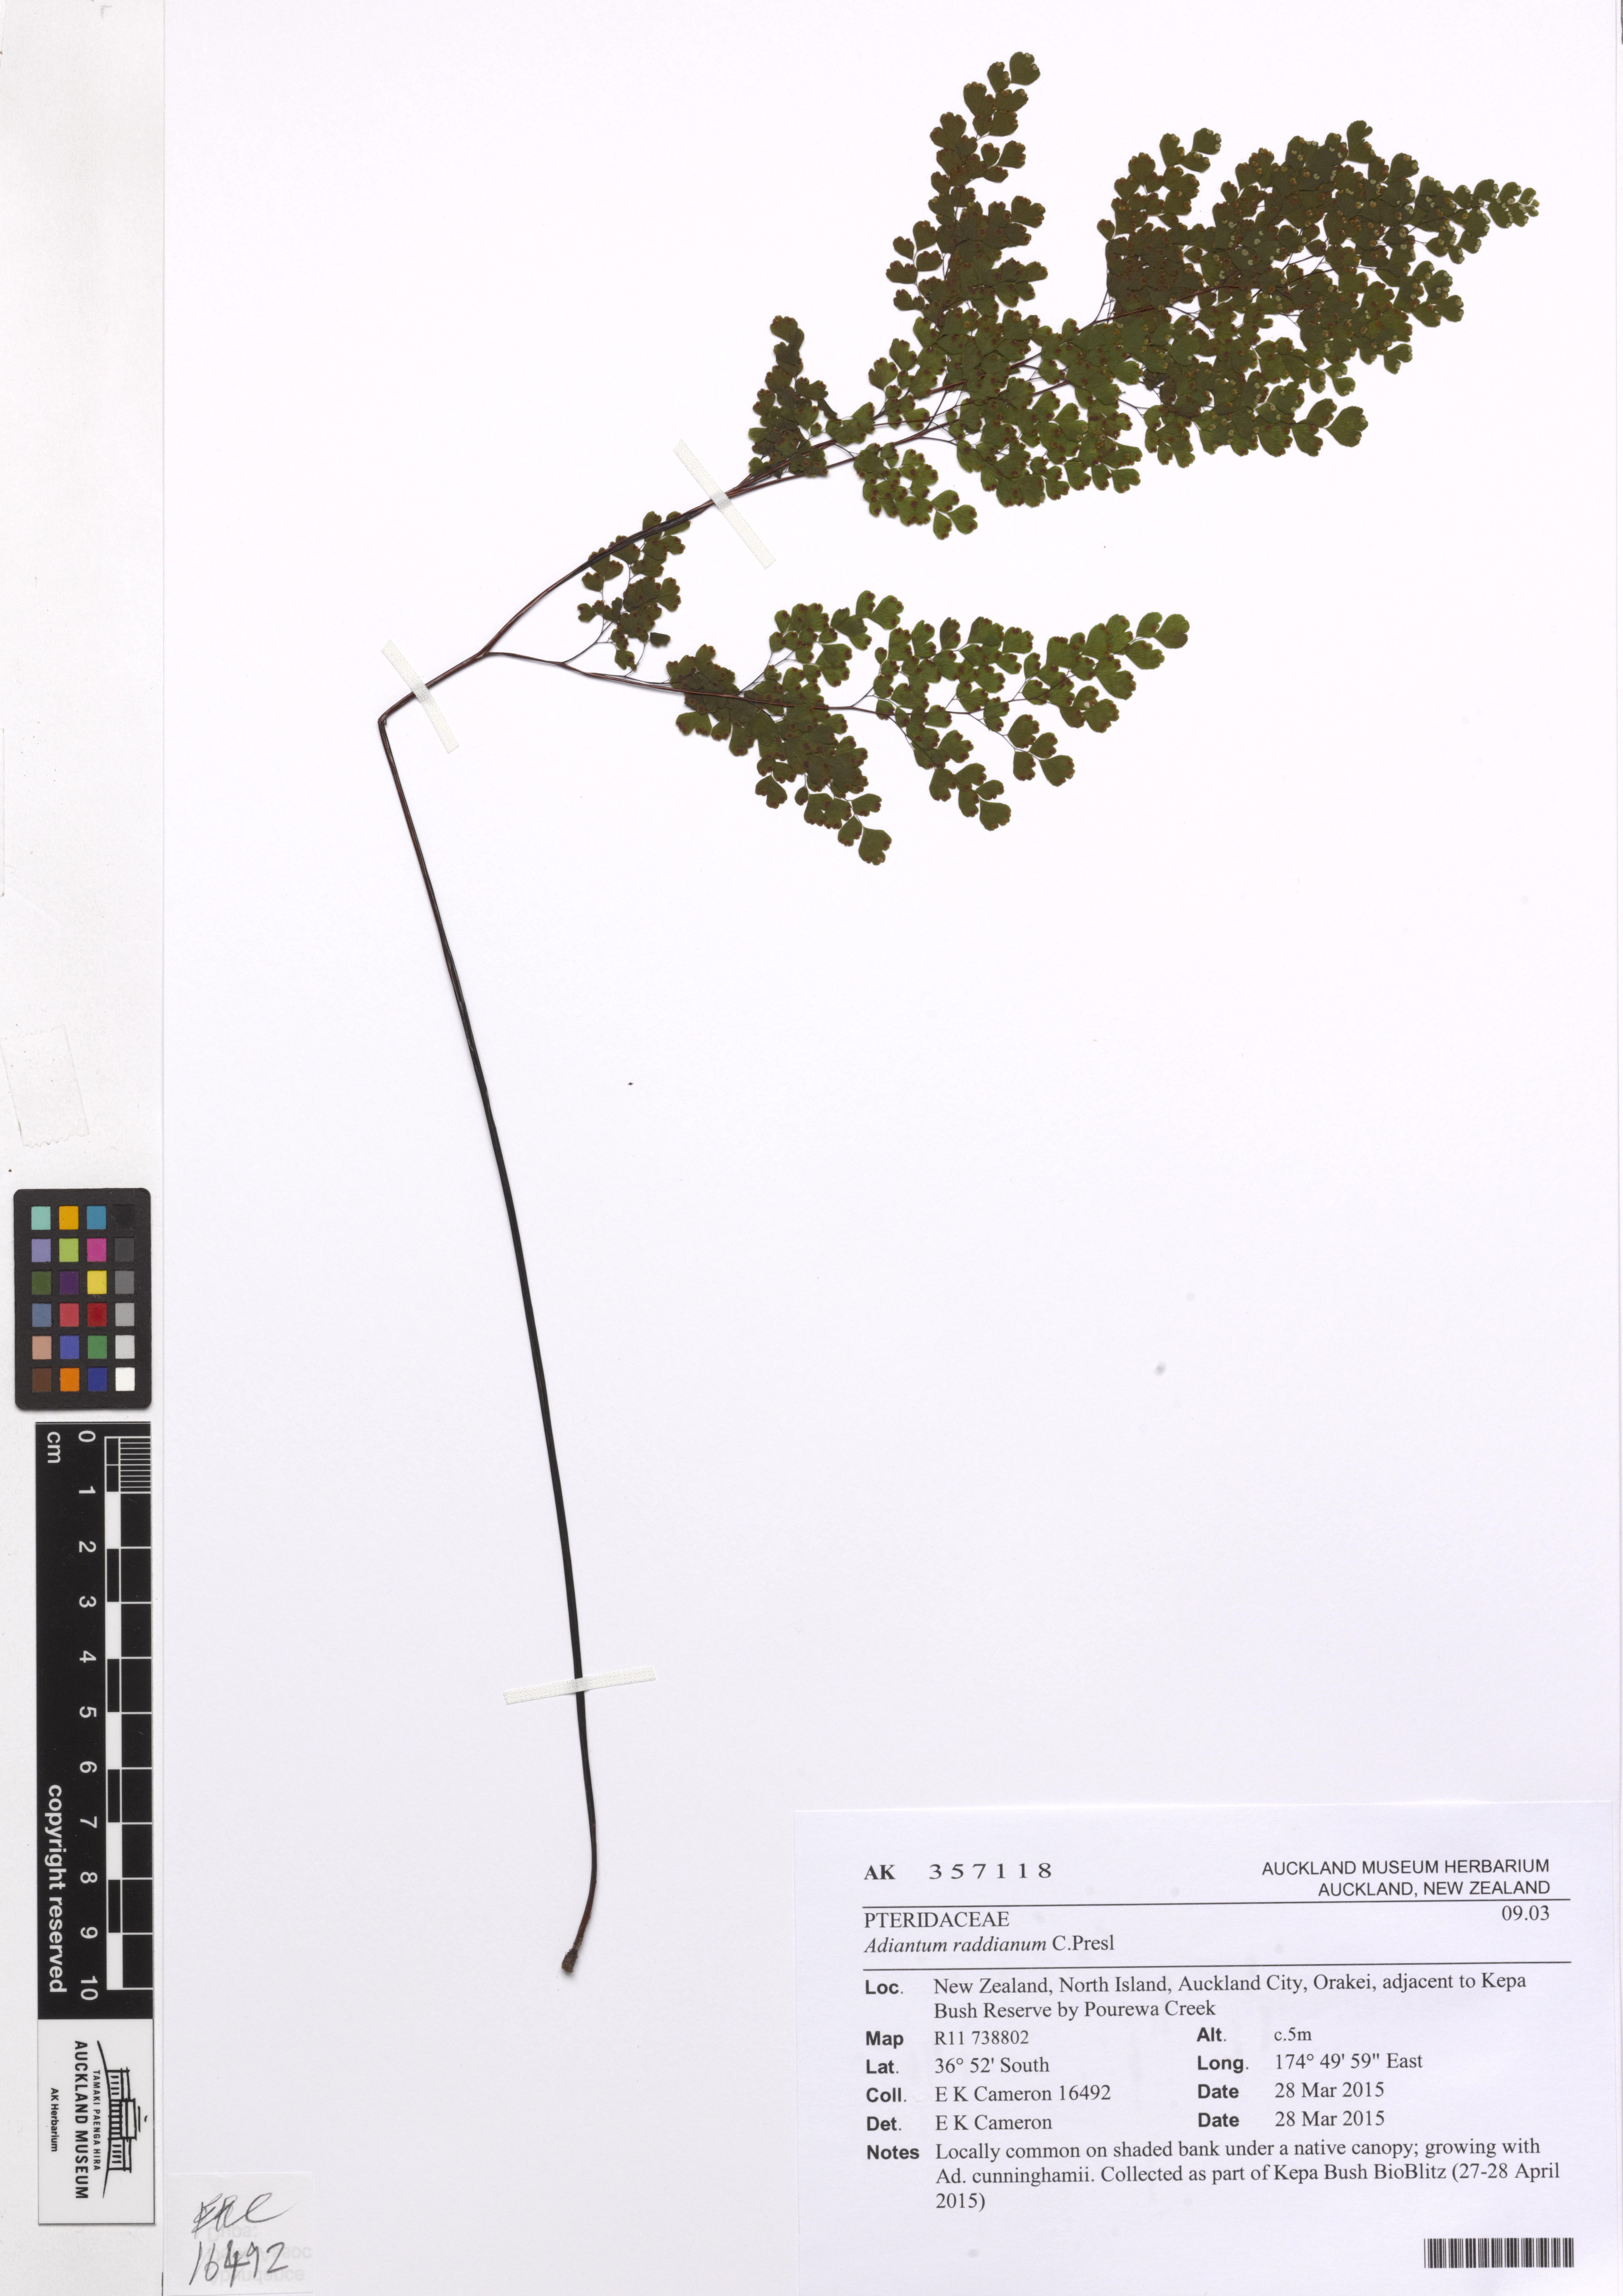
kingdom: Plantae
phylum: Tracheophyta
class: Polypodiopsida
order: Polypodiales
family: Pteridaceae
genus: Adiantum
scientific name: Adiantum raddianum
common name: Delta maidenhair fern
